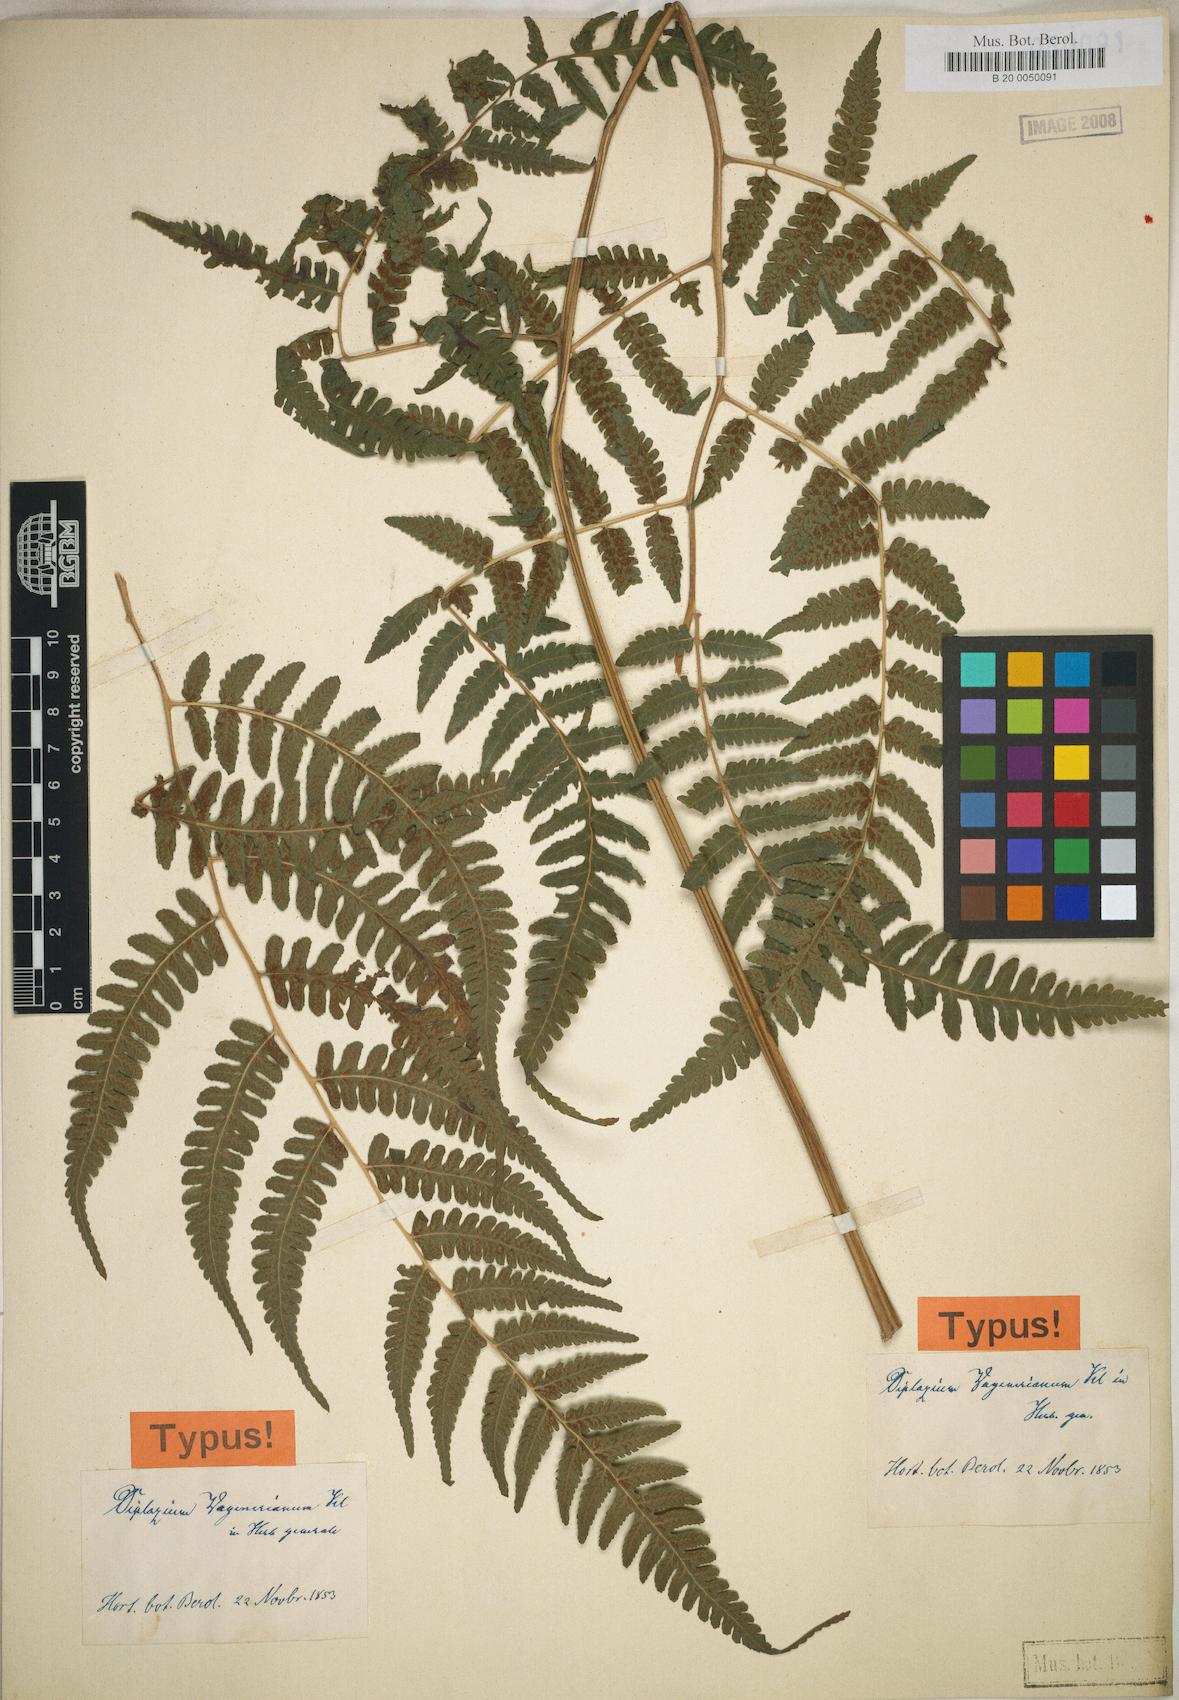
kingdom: Plantae
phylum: Tracheophyta
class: Polypodiopsida
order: Polypodiales
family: Athyriaceae
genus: Diplazium
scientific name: Diplazium hians
